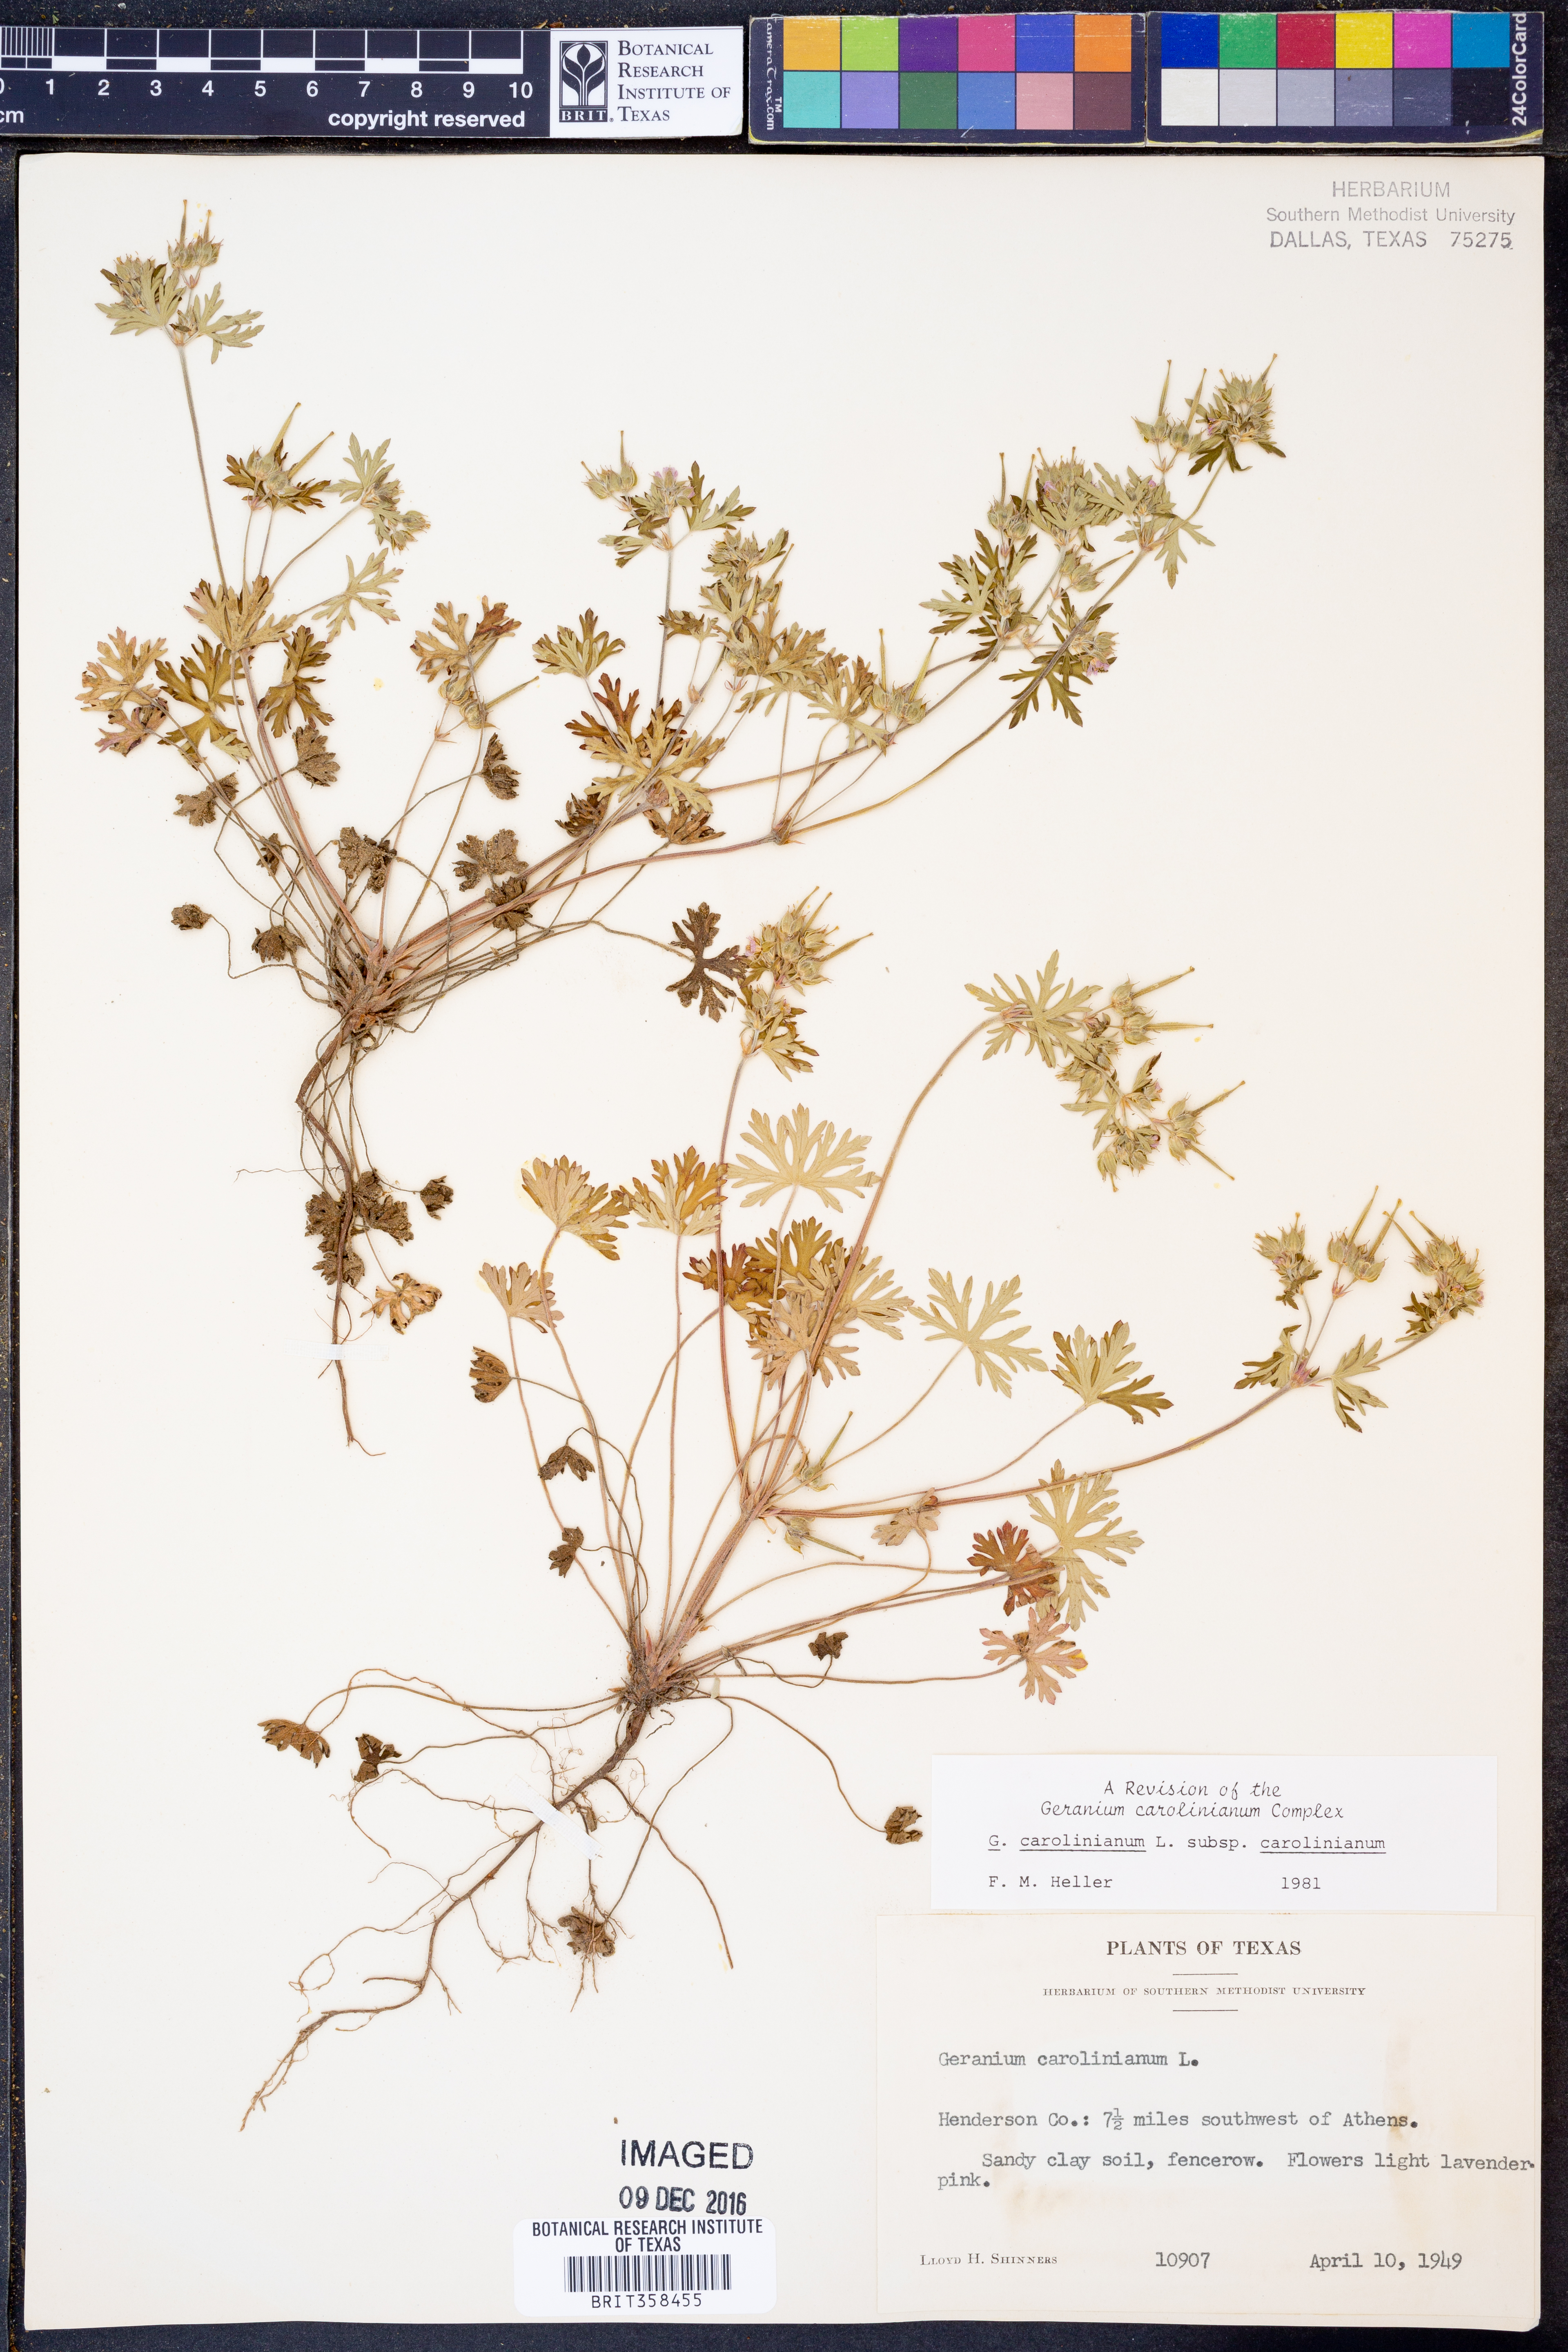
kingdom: Plantae
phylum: Tracheophyta
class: Magnoliopsida
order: Geraniales
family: Geraniaceae
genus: Geranium
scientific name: Geranium carolinianum
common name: Carolina crane's-bill
